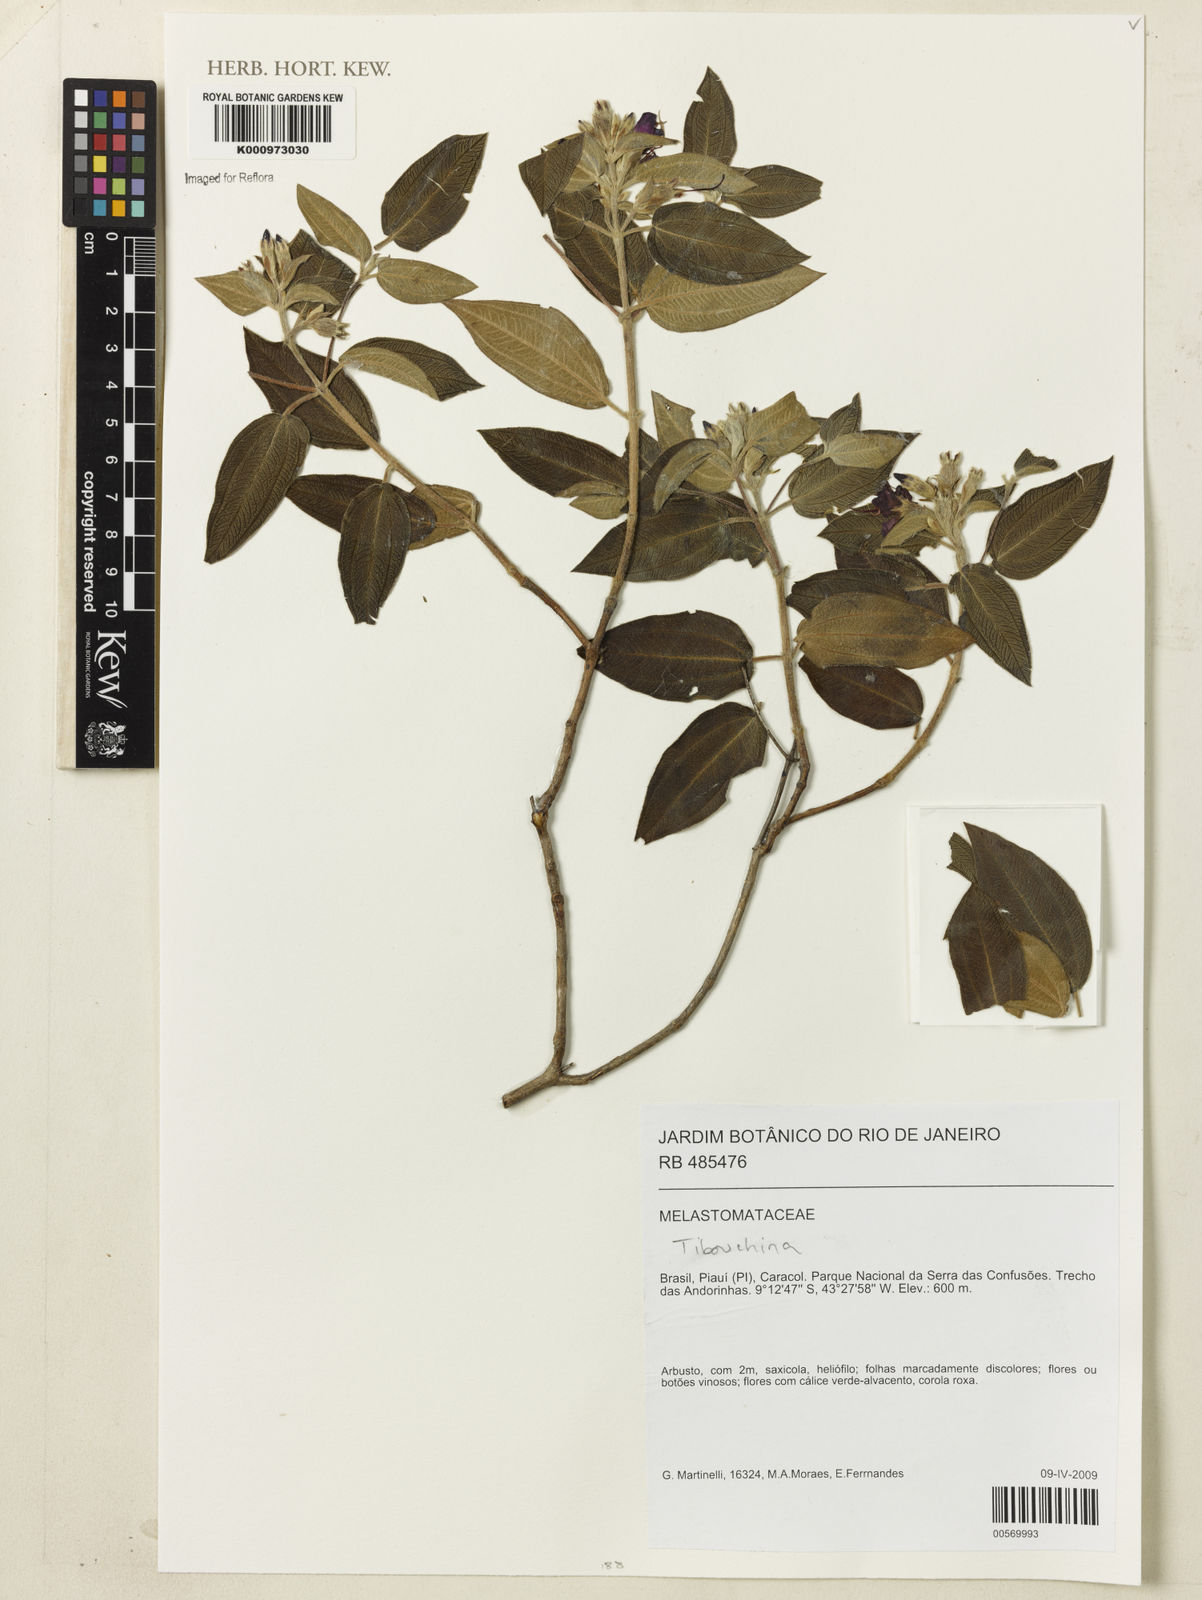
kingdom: Plantae
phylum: Tracheophyta
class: Magnoliopsida
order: Myrtales
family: Melastomataceae
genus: Tibouchina
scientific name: Tibouchina
